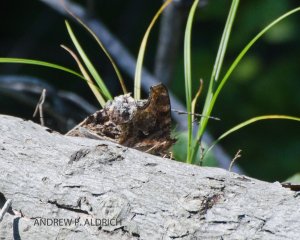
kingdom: Animalia
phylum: Arthropoda
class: Insecta
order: Lepidoptera
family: Nymphalidae
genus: Polygonia
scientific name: Polygonia comma
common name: Eastern Comma
